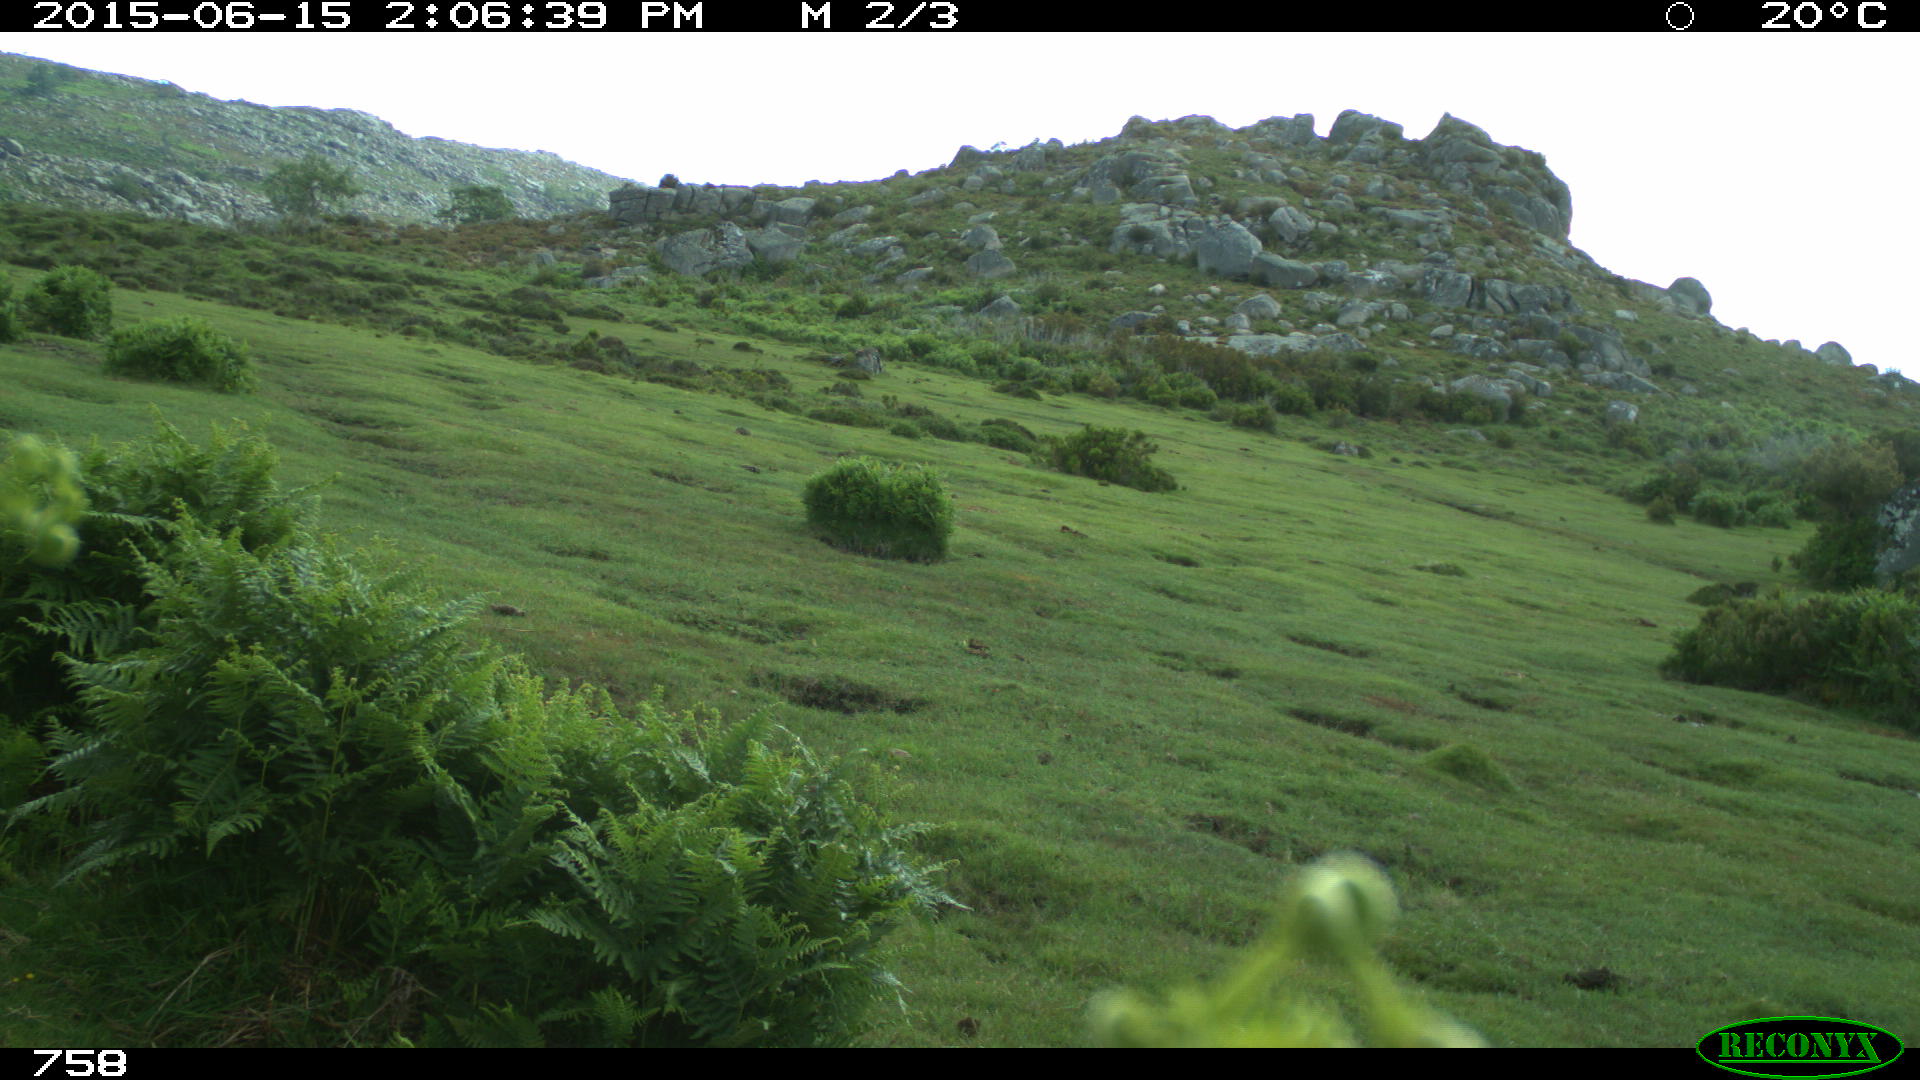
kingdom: Animalia
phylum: Chordata
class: Mammalia
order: Artiodactyla
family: Bovidae
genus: Bos
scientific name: Bos taurus
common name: Domesticated cattle
